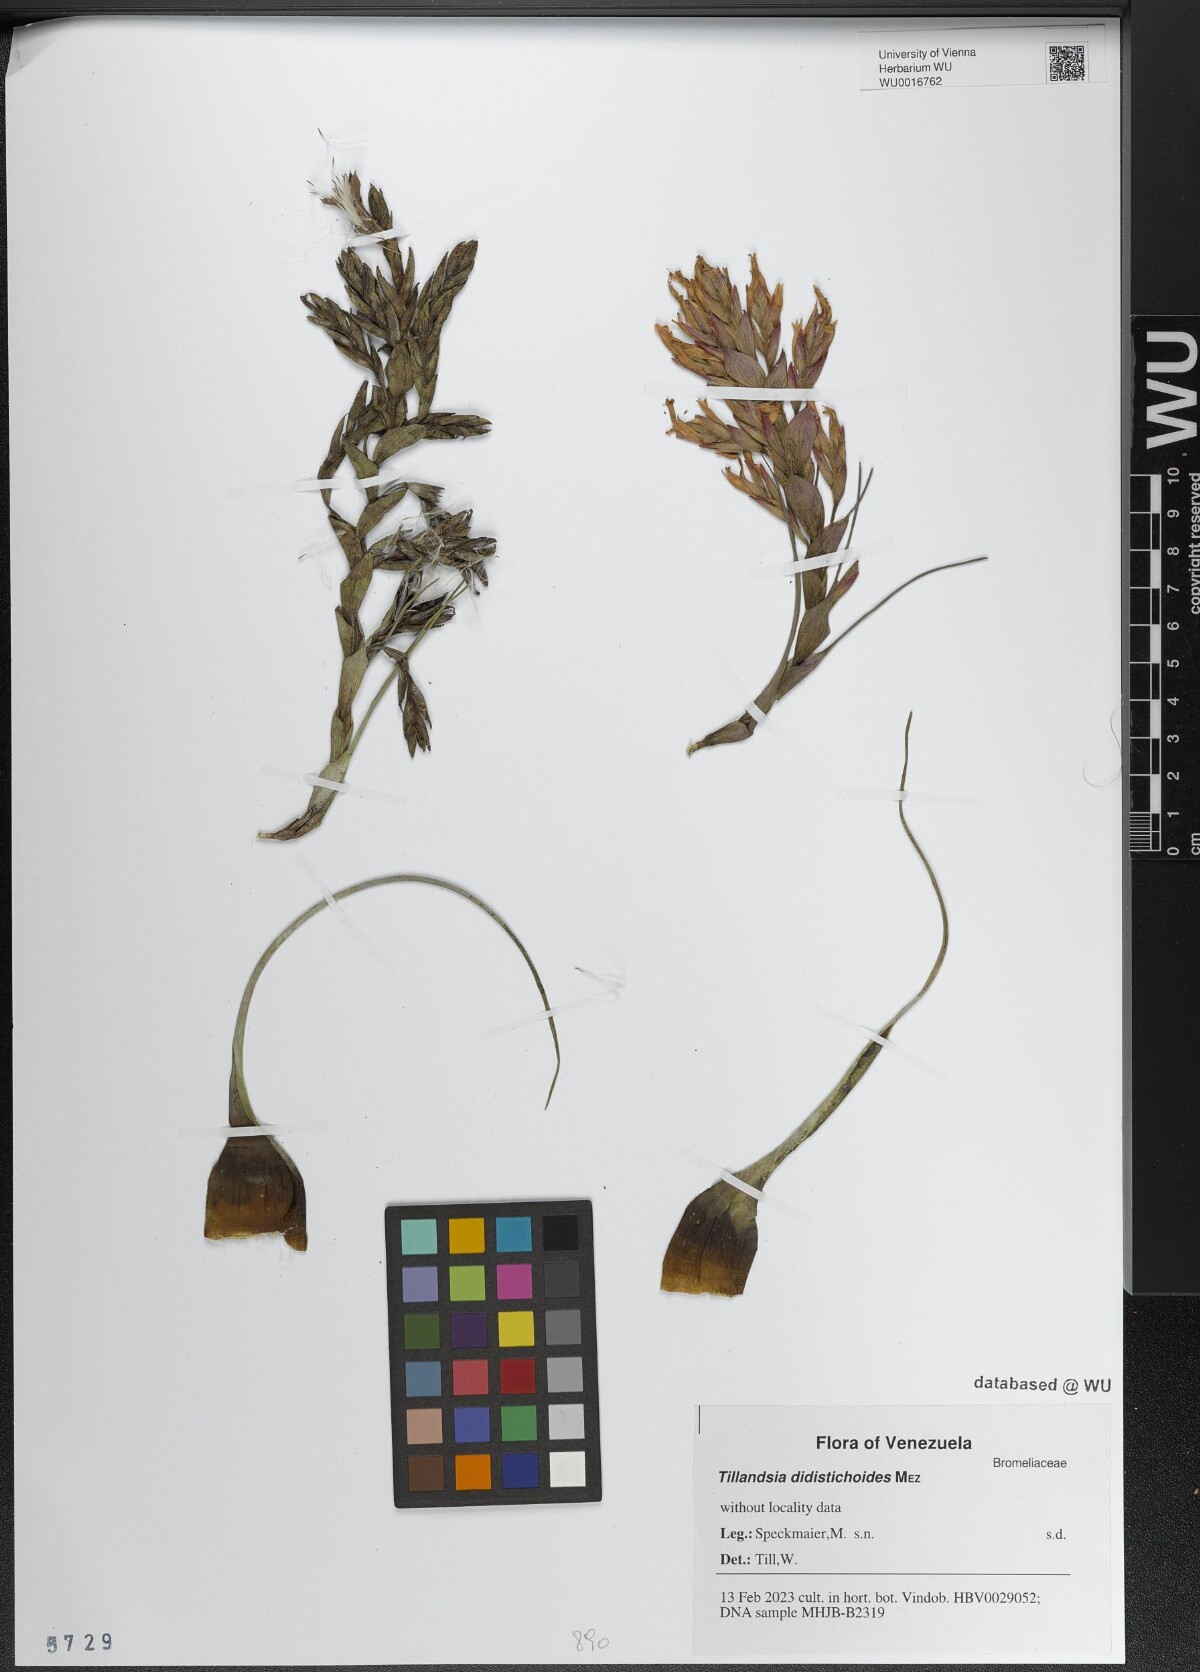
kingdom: Plantae
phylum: Tracheophyta
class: Liliopsida
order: Poales
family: Bromeliaceae
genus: Tillandsia
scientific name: Tillandsia didistichoides
